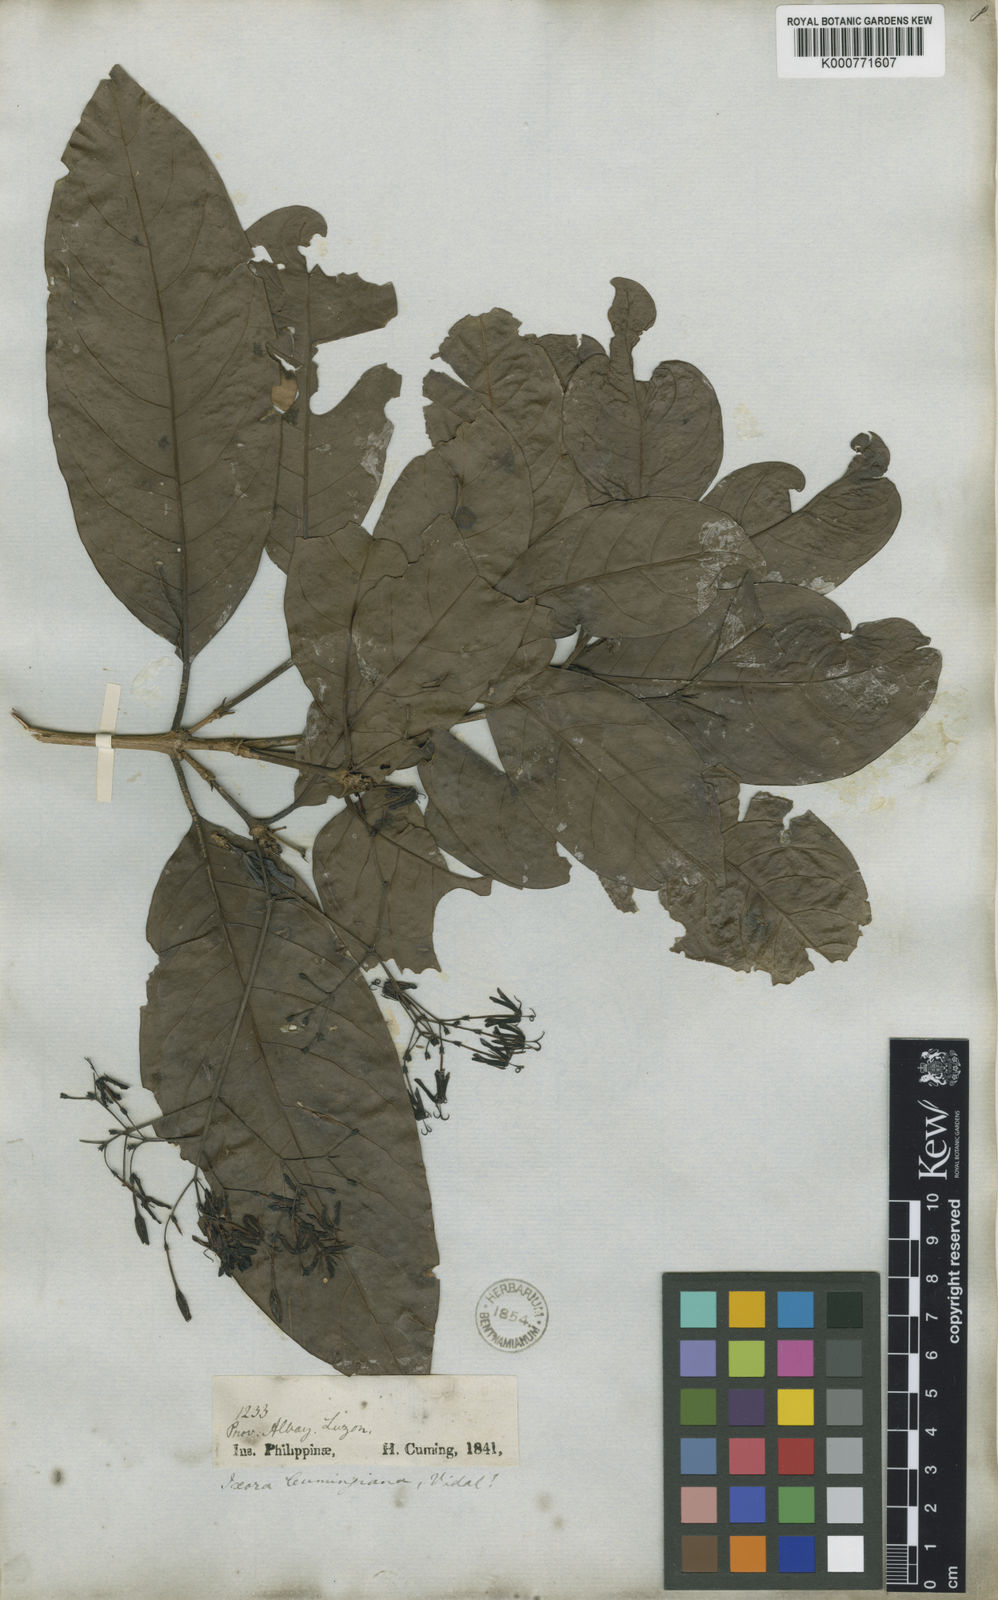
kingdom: Plantae
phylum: Tracheophyta
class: Magnoliopsida
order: Gentianales
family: Rubiaceae
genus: Ixora
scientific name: Ixora cumingiana
